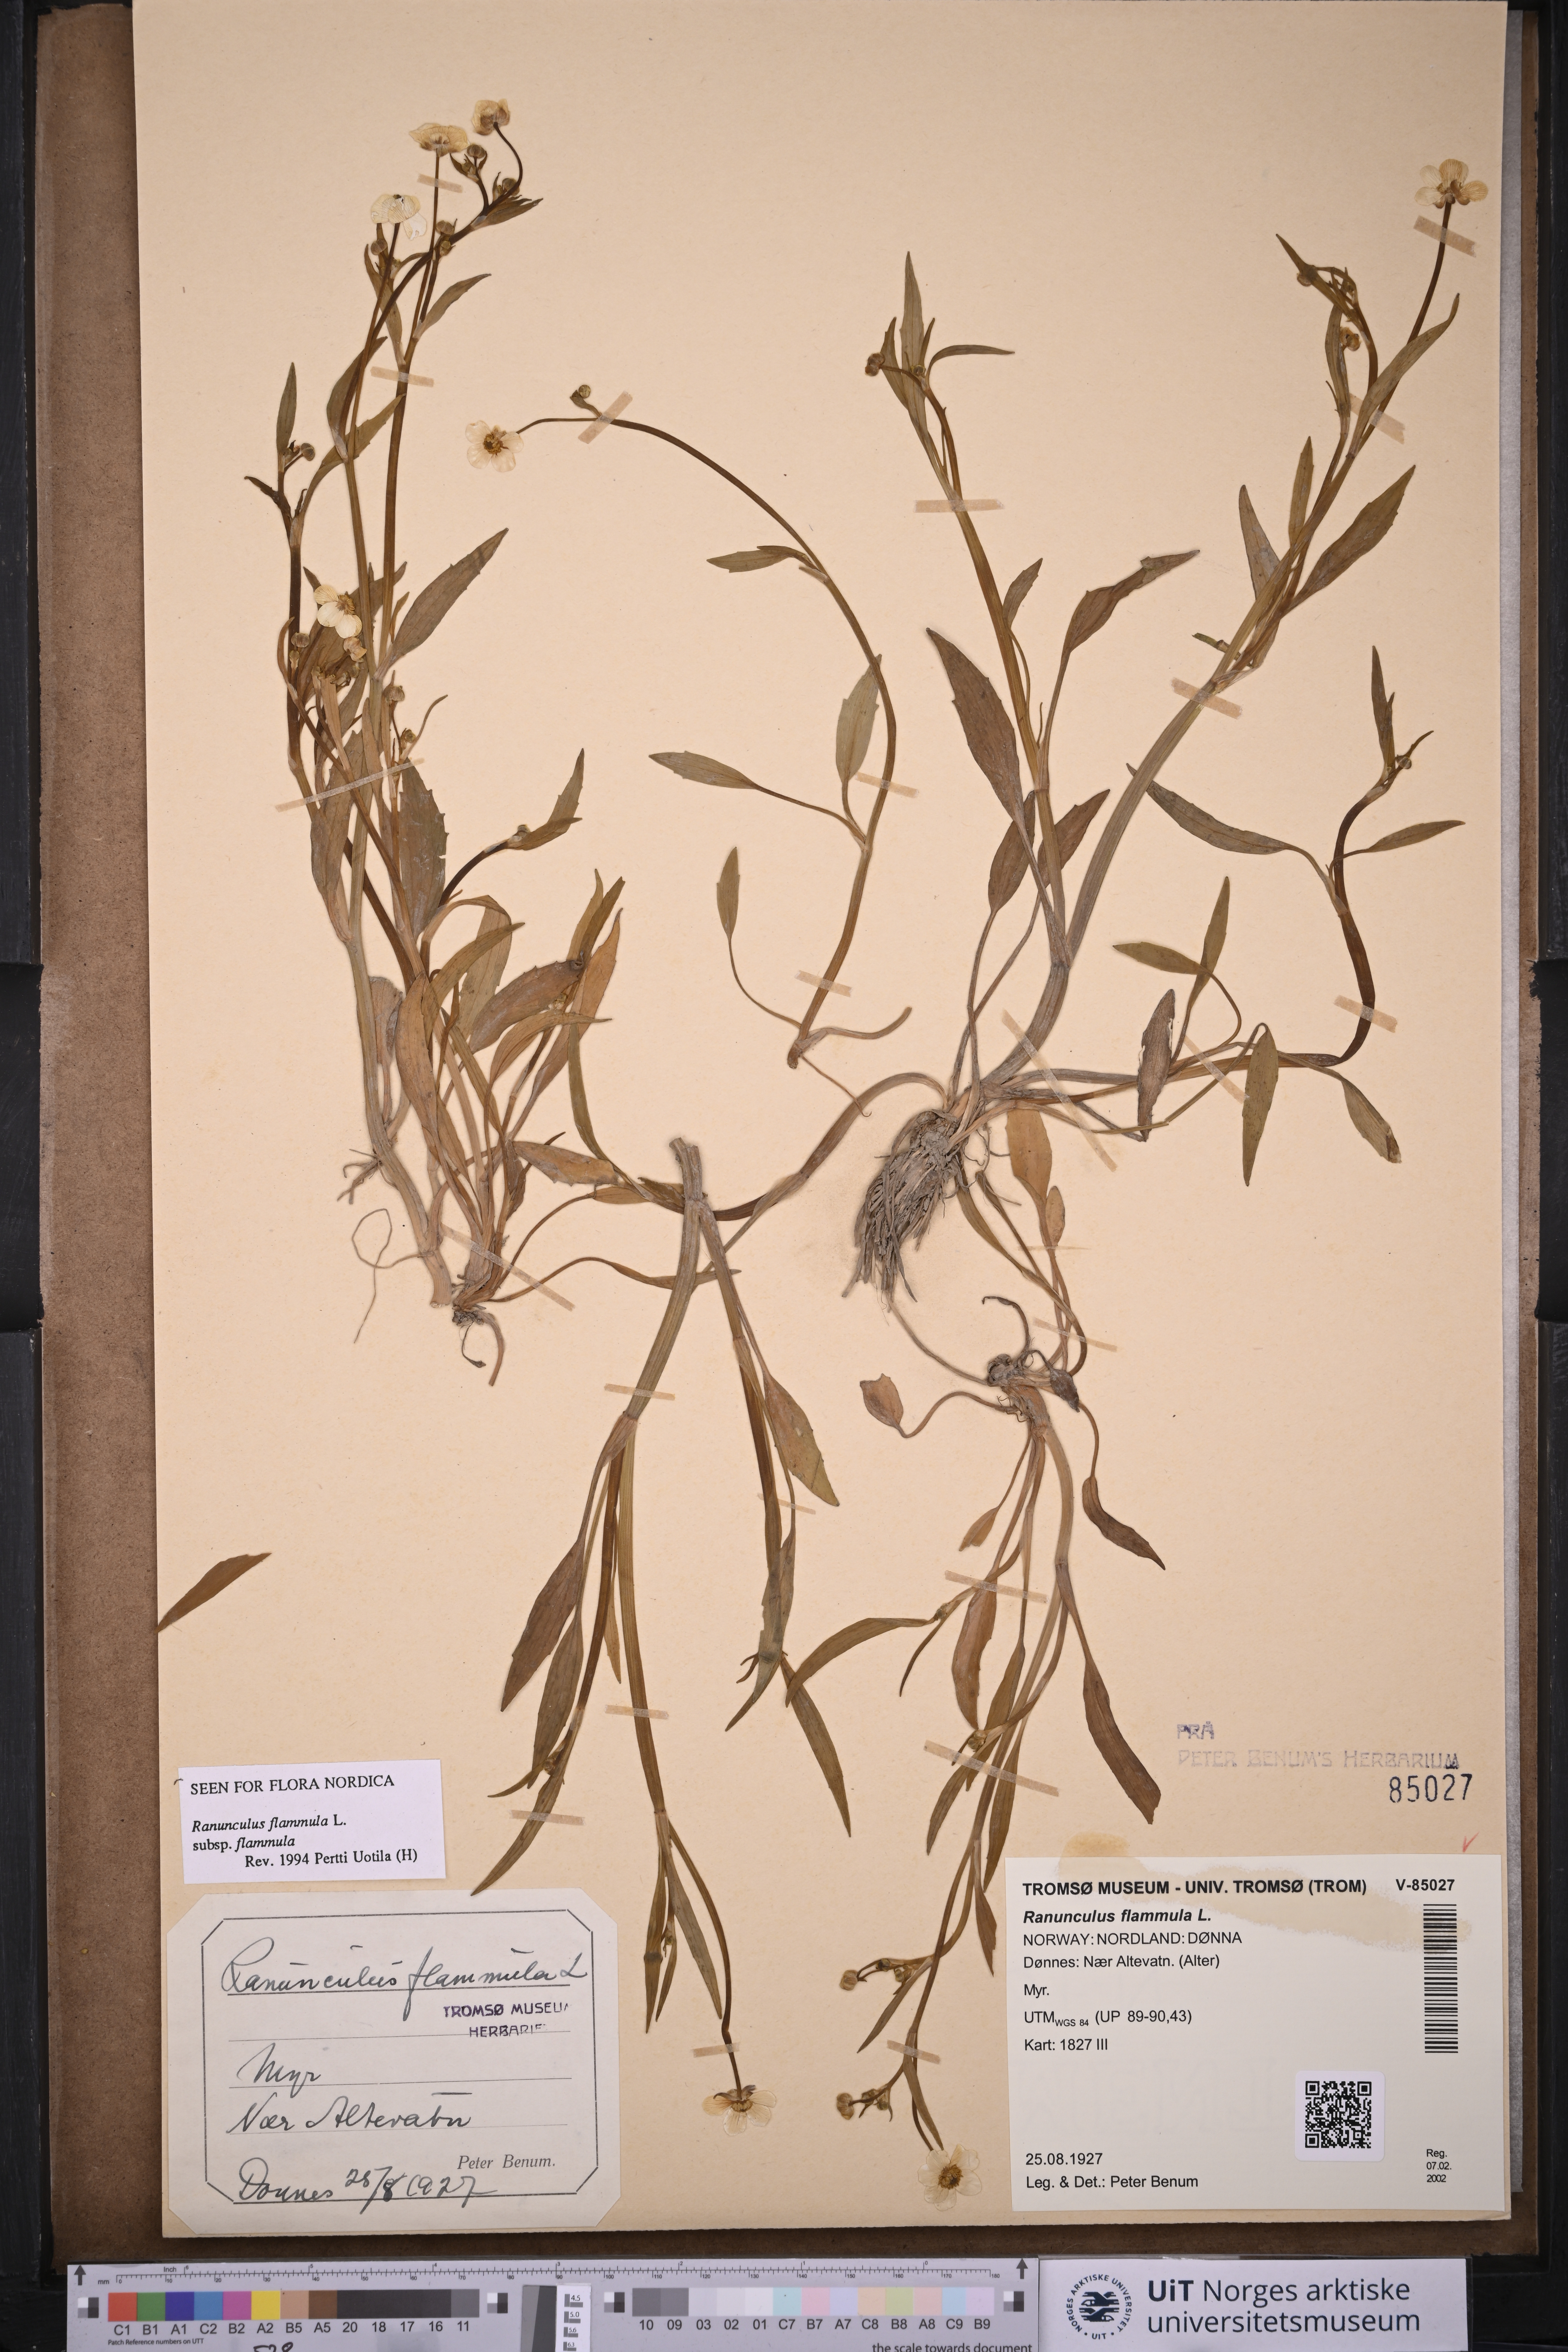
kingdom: Plantae
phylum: Tracheophyta
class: Magnoliopsida
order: Ranunculales
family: Ranunculaceae
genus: Ranunculus
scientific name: Ranunculus flammula
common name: Lesser spearwort
